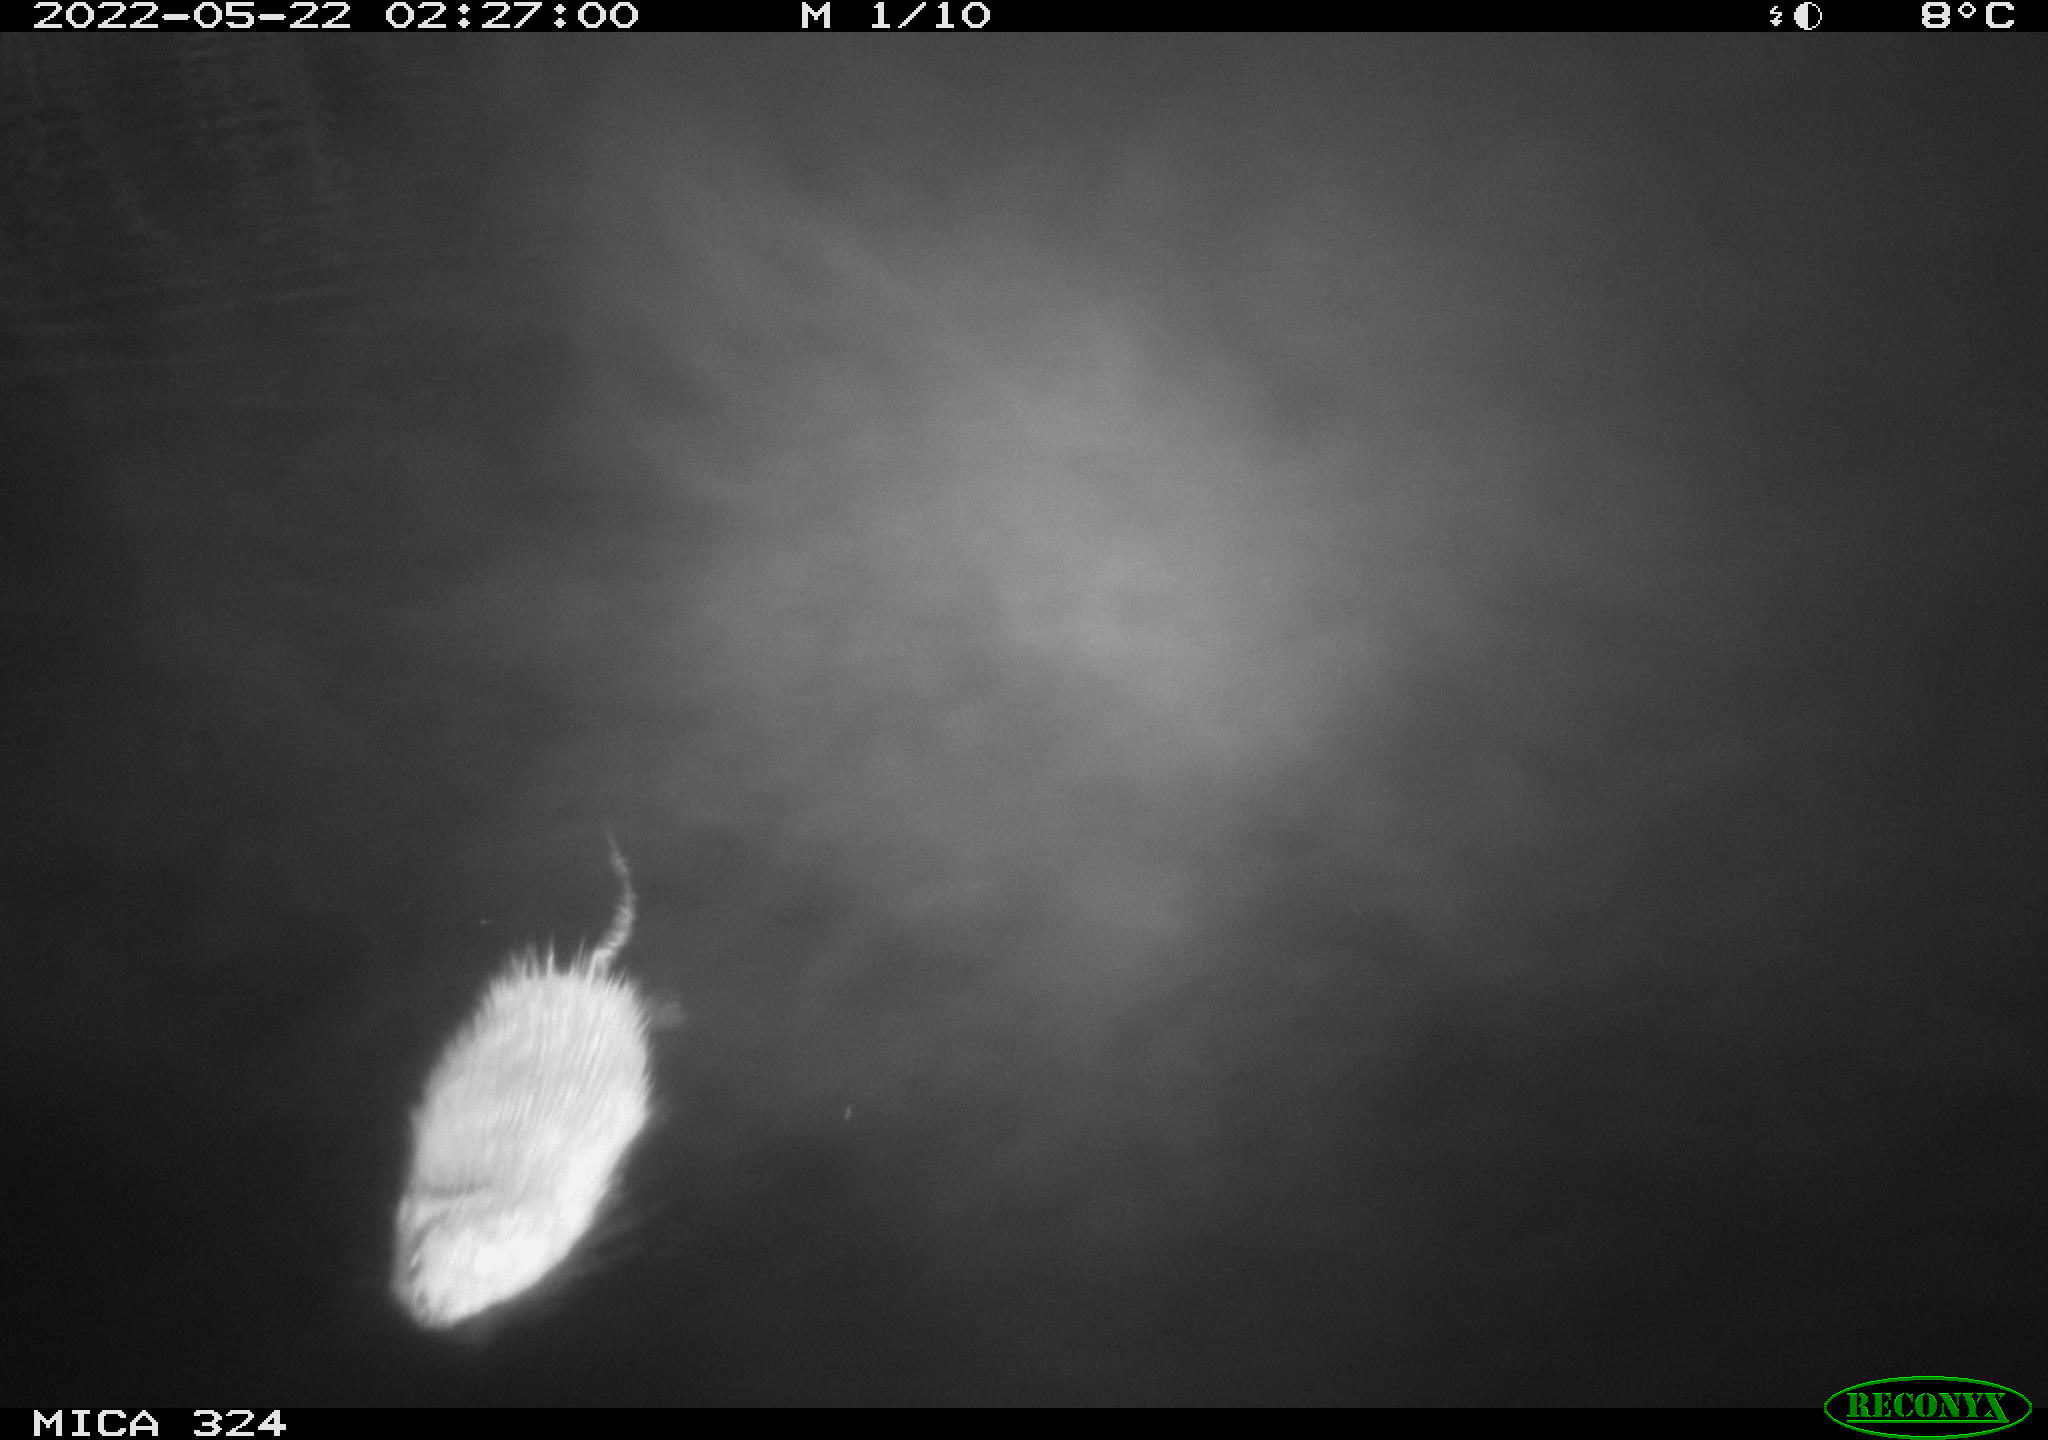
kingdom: Animalia
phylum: Chordata
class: Mammalia
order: Rodentia
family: Cricetidae
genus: Ondatra
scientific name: Ondatra zibethicus
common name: Muskrat
